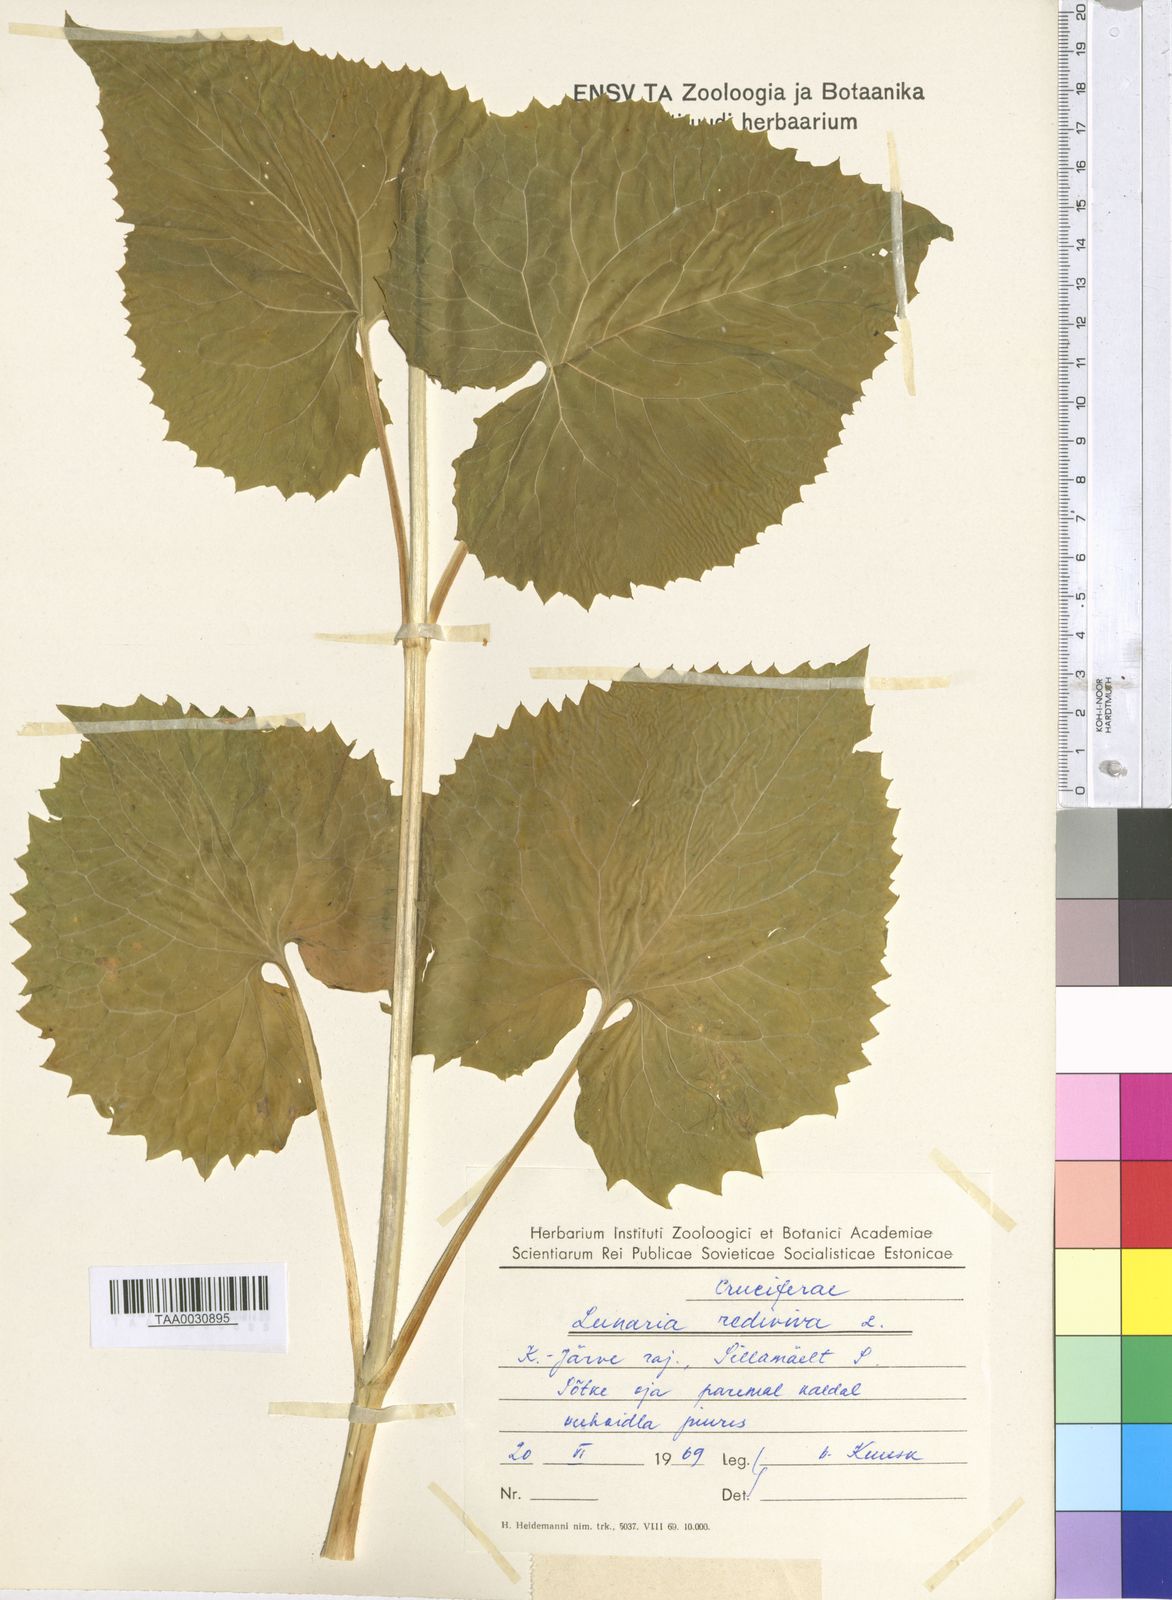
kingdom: Plantae
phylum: Tracheophyta
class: Magnoliopsida
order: Brassicales
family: Brassicaceae
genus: Lunaria
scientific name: Lunaria rediviva
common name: Perennial honesty
